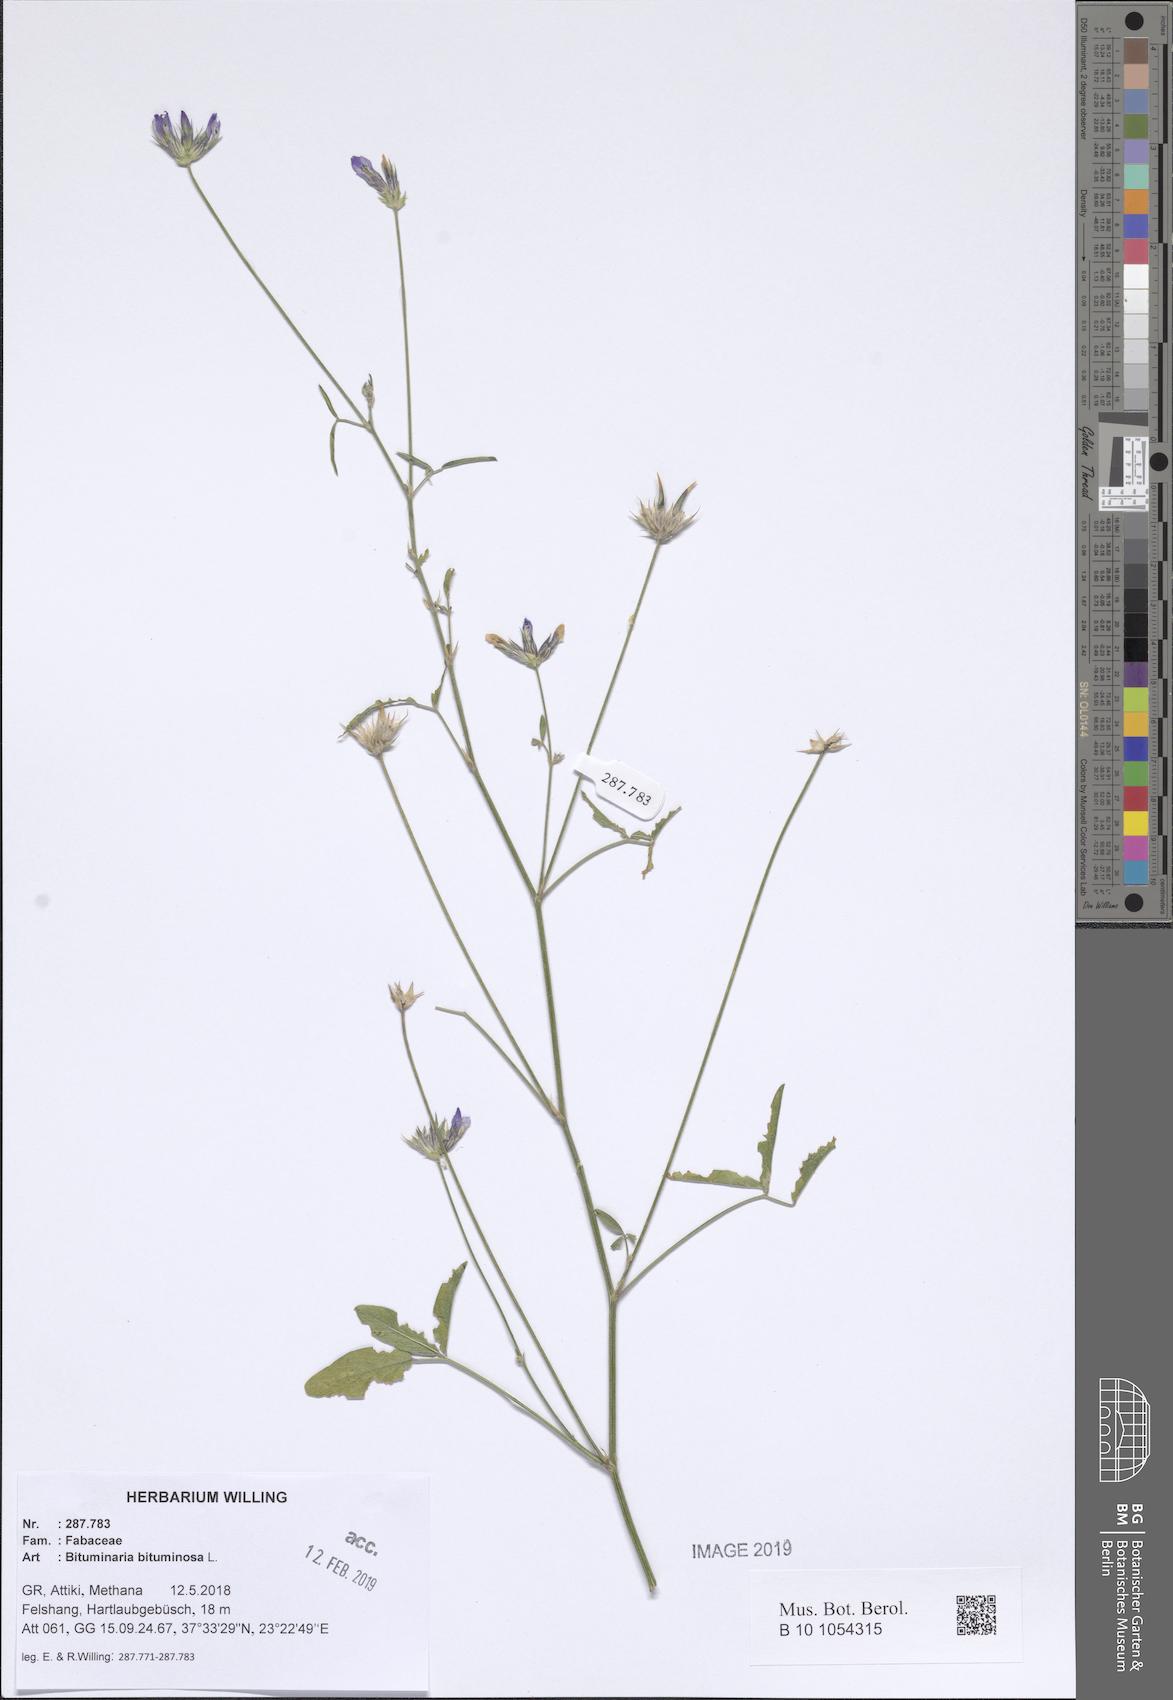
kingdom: Plantae
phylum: Tracheophyta
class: Magnoliopsida
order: Fabales
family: Fabaceae
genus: Bituminaria
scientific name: Bituminaria bituminosa
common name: Arabian pea
